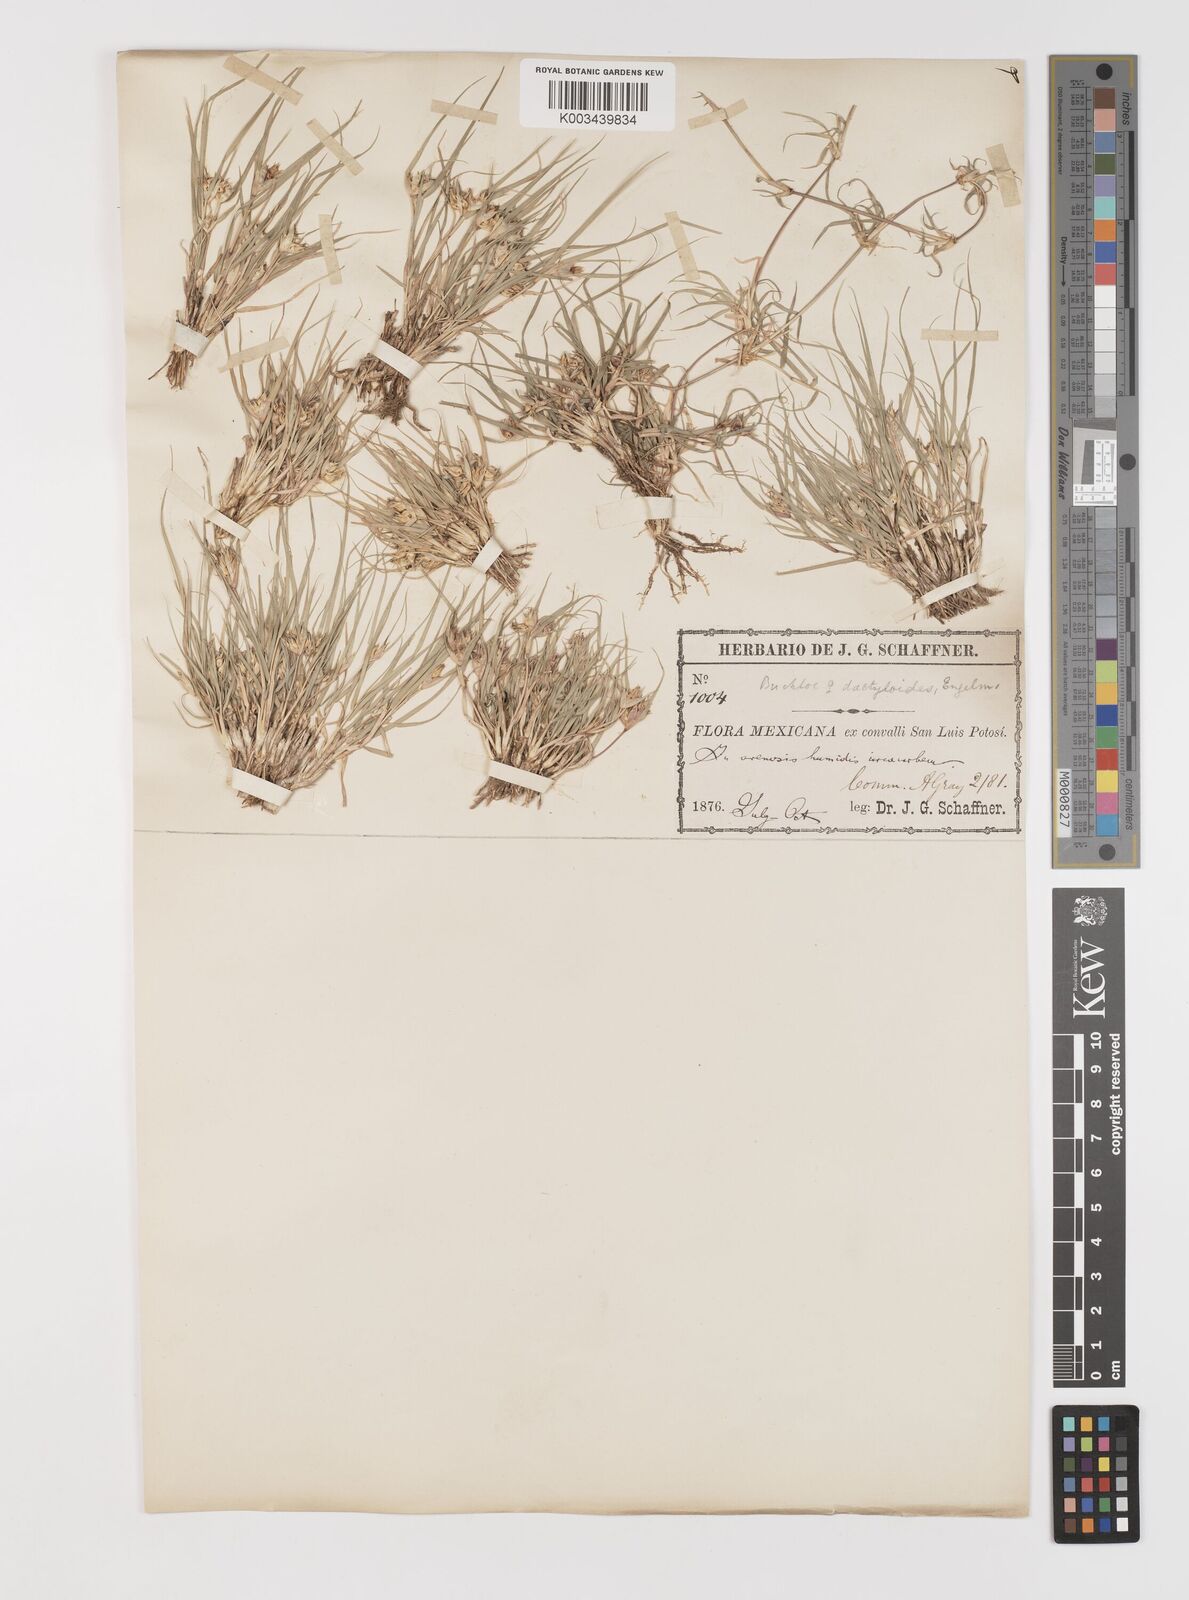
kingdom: Plantae
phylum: Tracheophyta
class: Liliopsida
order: Poales
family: Poaceae
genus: Bouteloua
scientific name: Bouteloua dactyloides
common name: Buffalo grass
